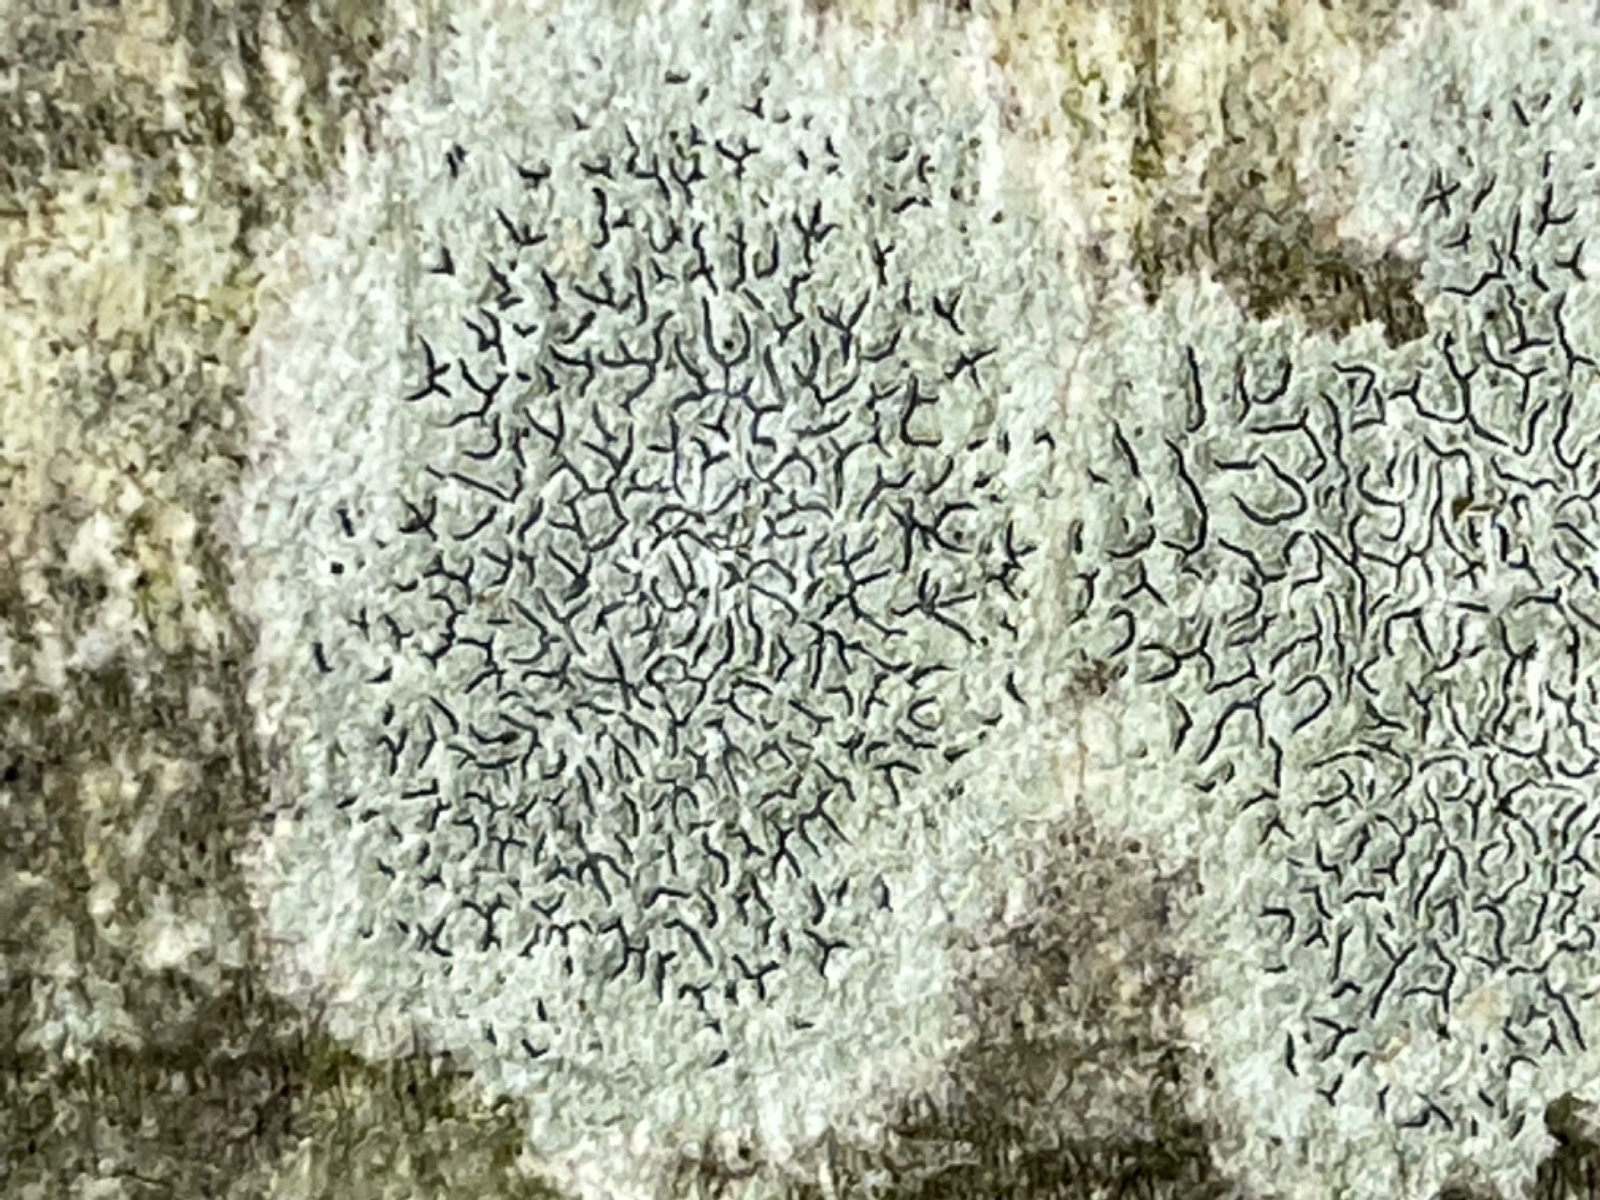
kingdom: Fungi
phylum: Ascomycota
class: Lecanoromycetes
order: Ostropales
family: Graphidaceae
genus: Graphis
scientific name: Graphis scripta
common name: almindelig skriftlav
